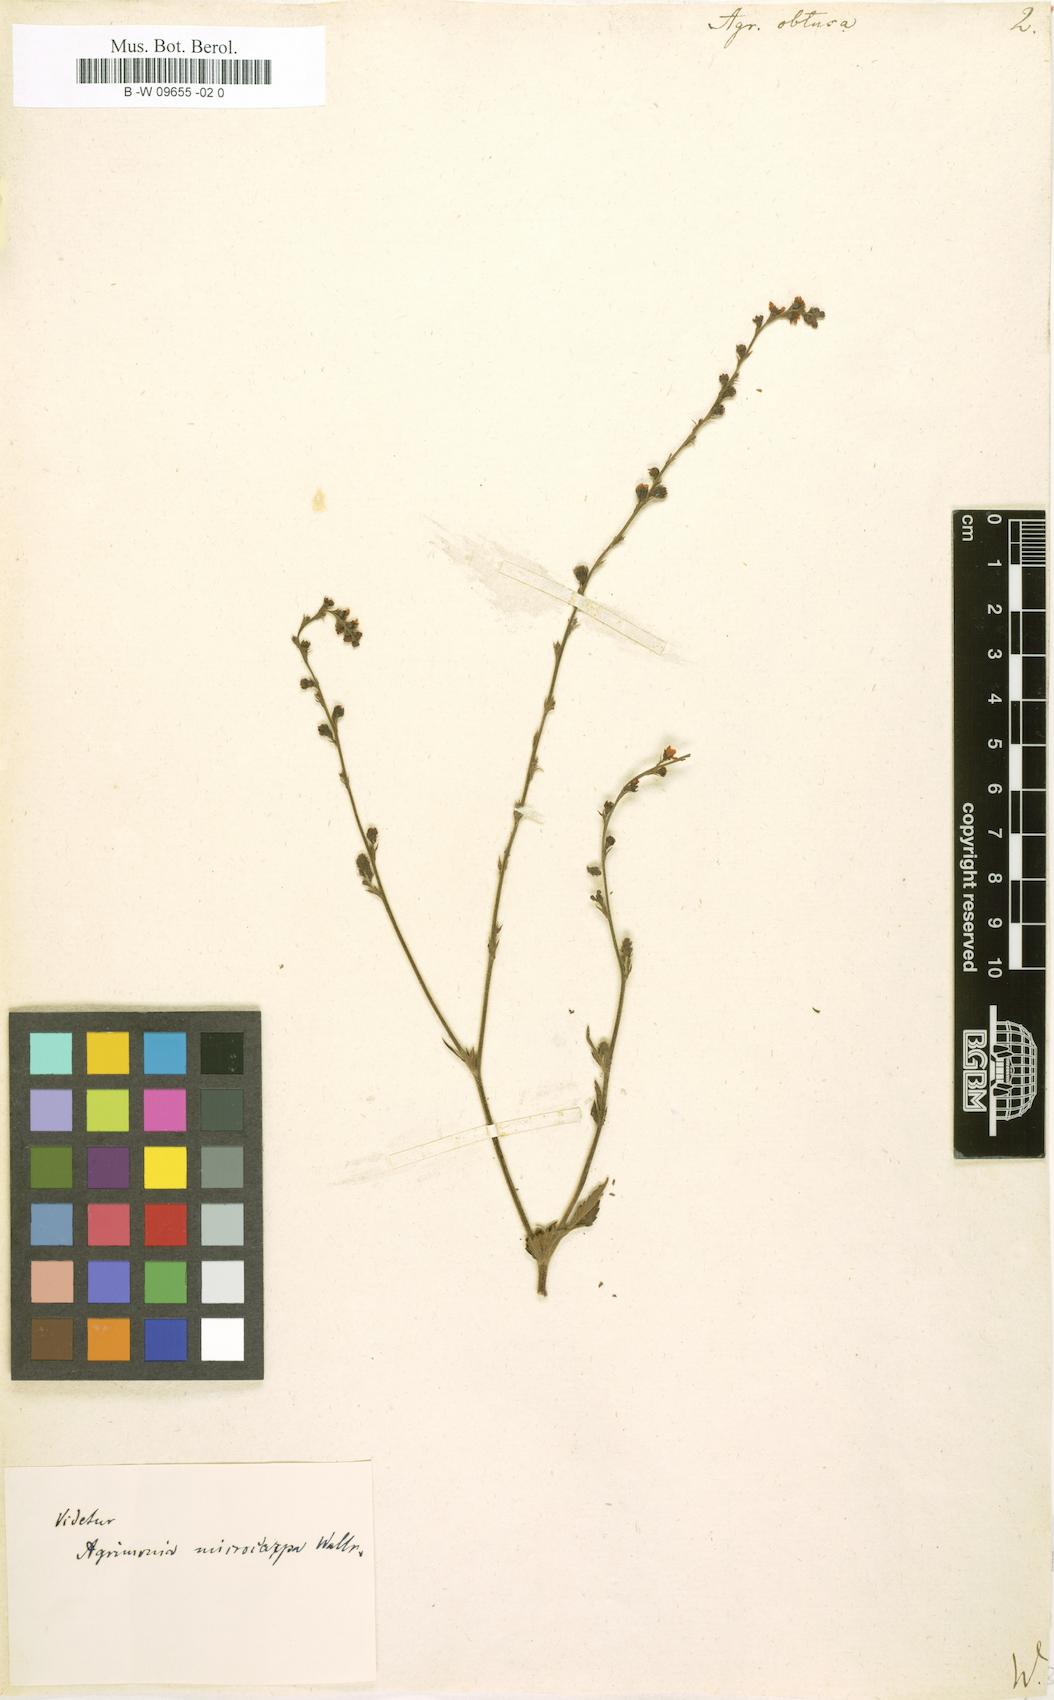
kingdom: Plantae
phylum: Tracheophyta
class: Magnoliopsida
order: Rosales
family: Rosaceae
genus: Agrimonia
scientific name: Agrimonia
